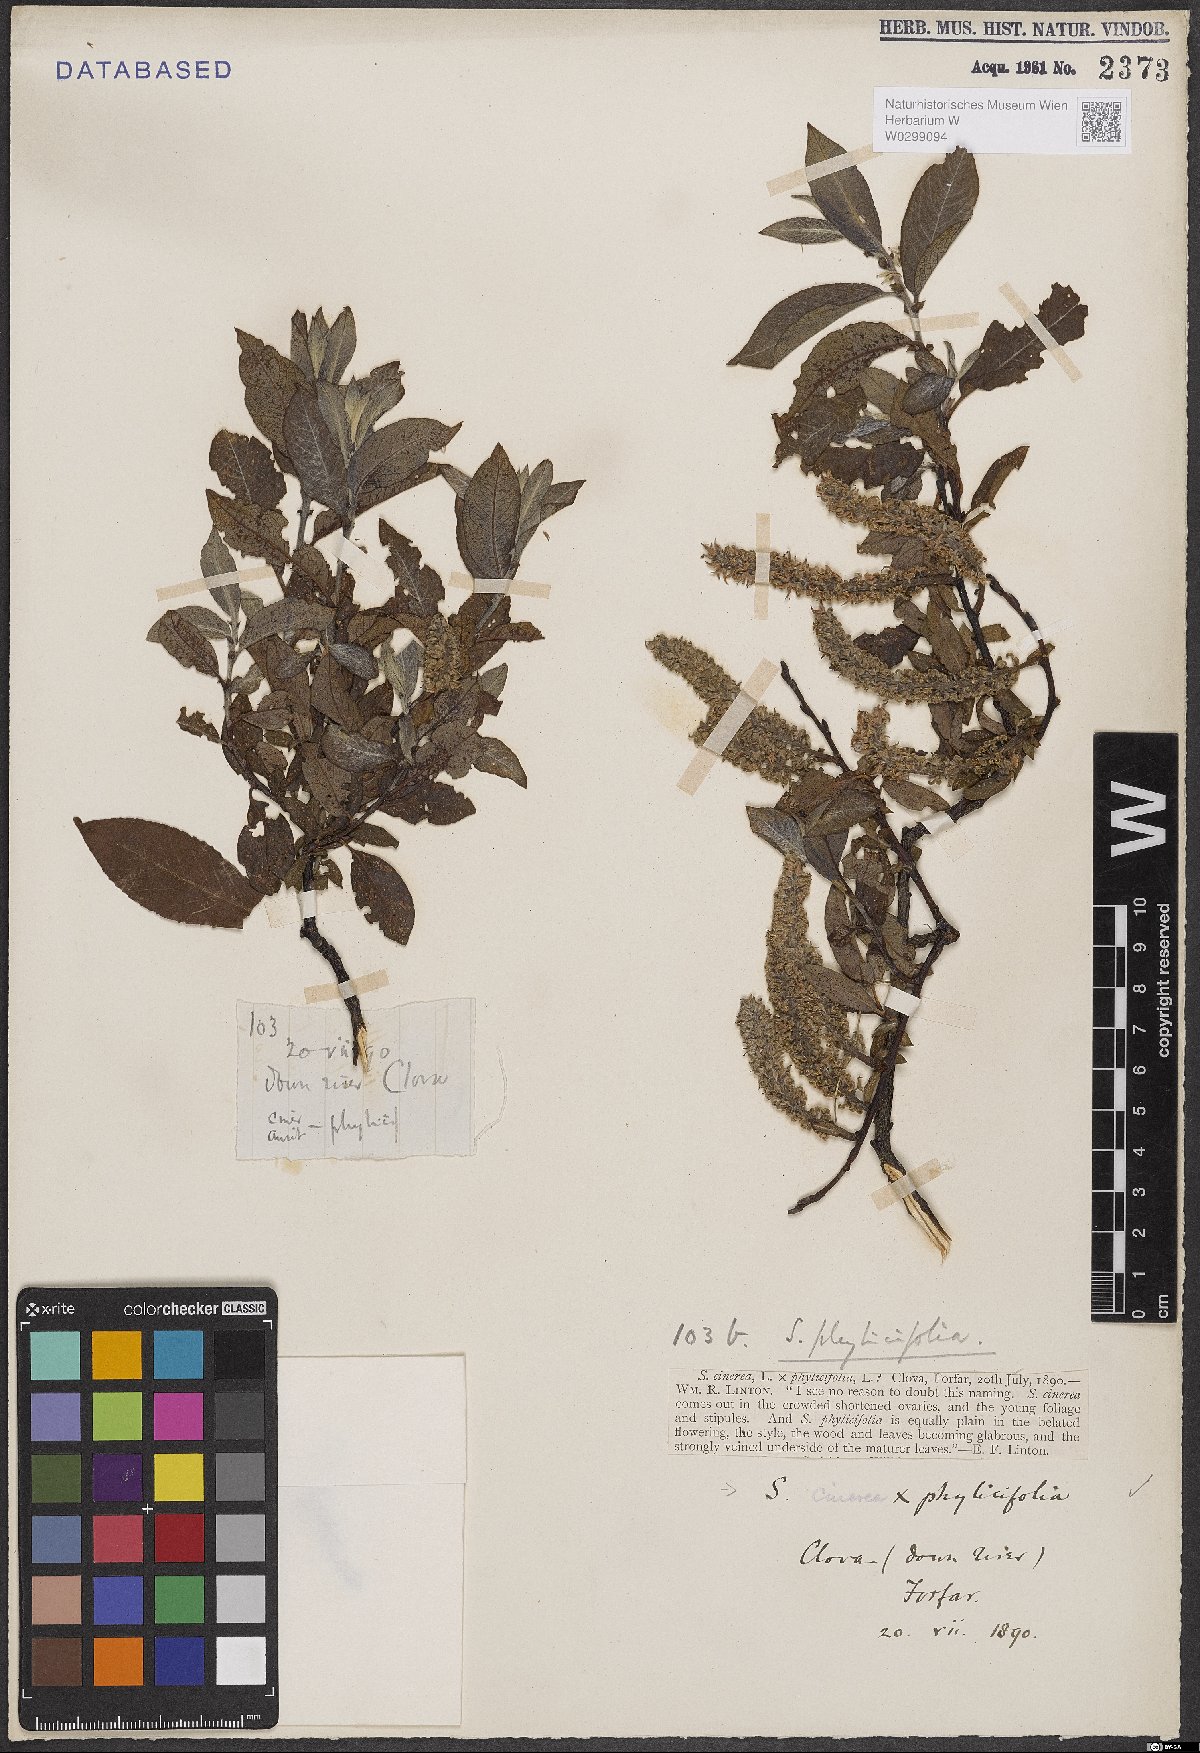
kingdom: Plantae
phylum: Tracheophyta
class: Magnoliopsida
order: Malpighiales
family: Salicaceae
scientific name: Salicaceae
